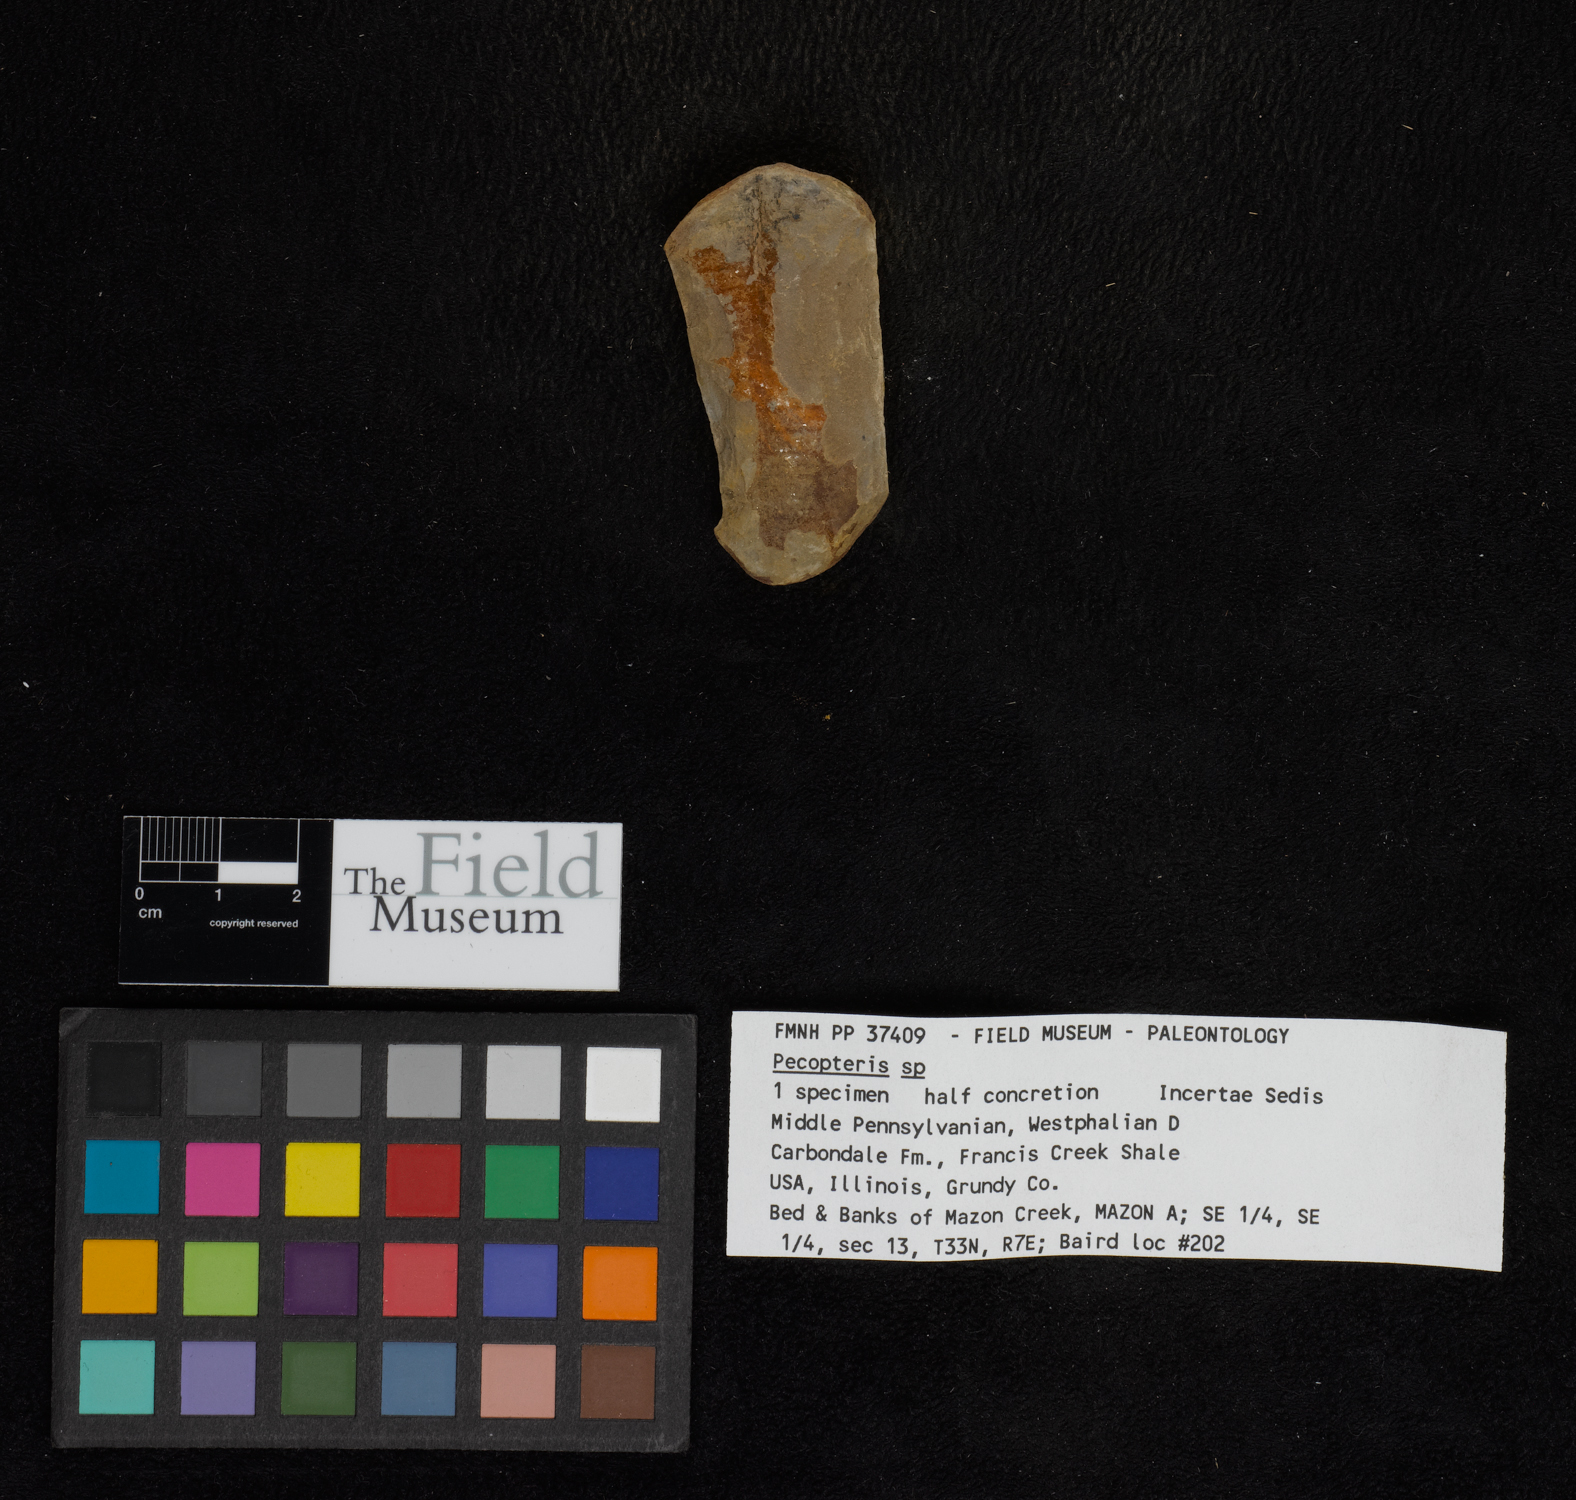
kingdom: Plantae
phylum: Tracheophyta
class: Polypodiopsida
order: Marattiales
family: Asterothecaceae
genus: Pecopteris
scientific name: Pecopteris
